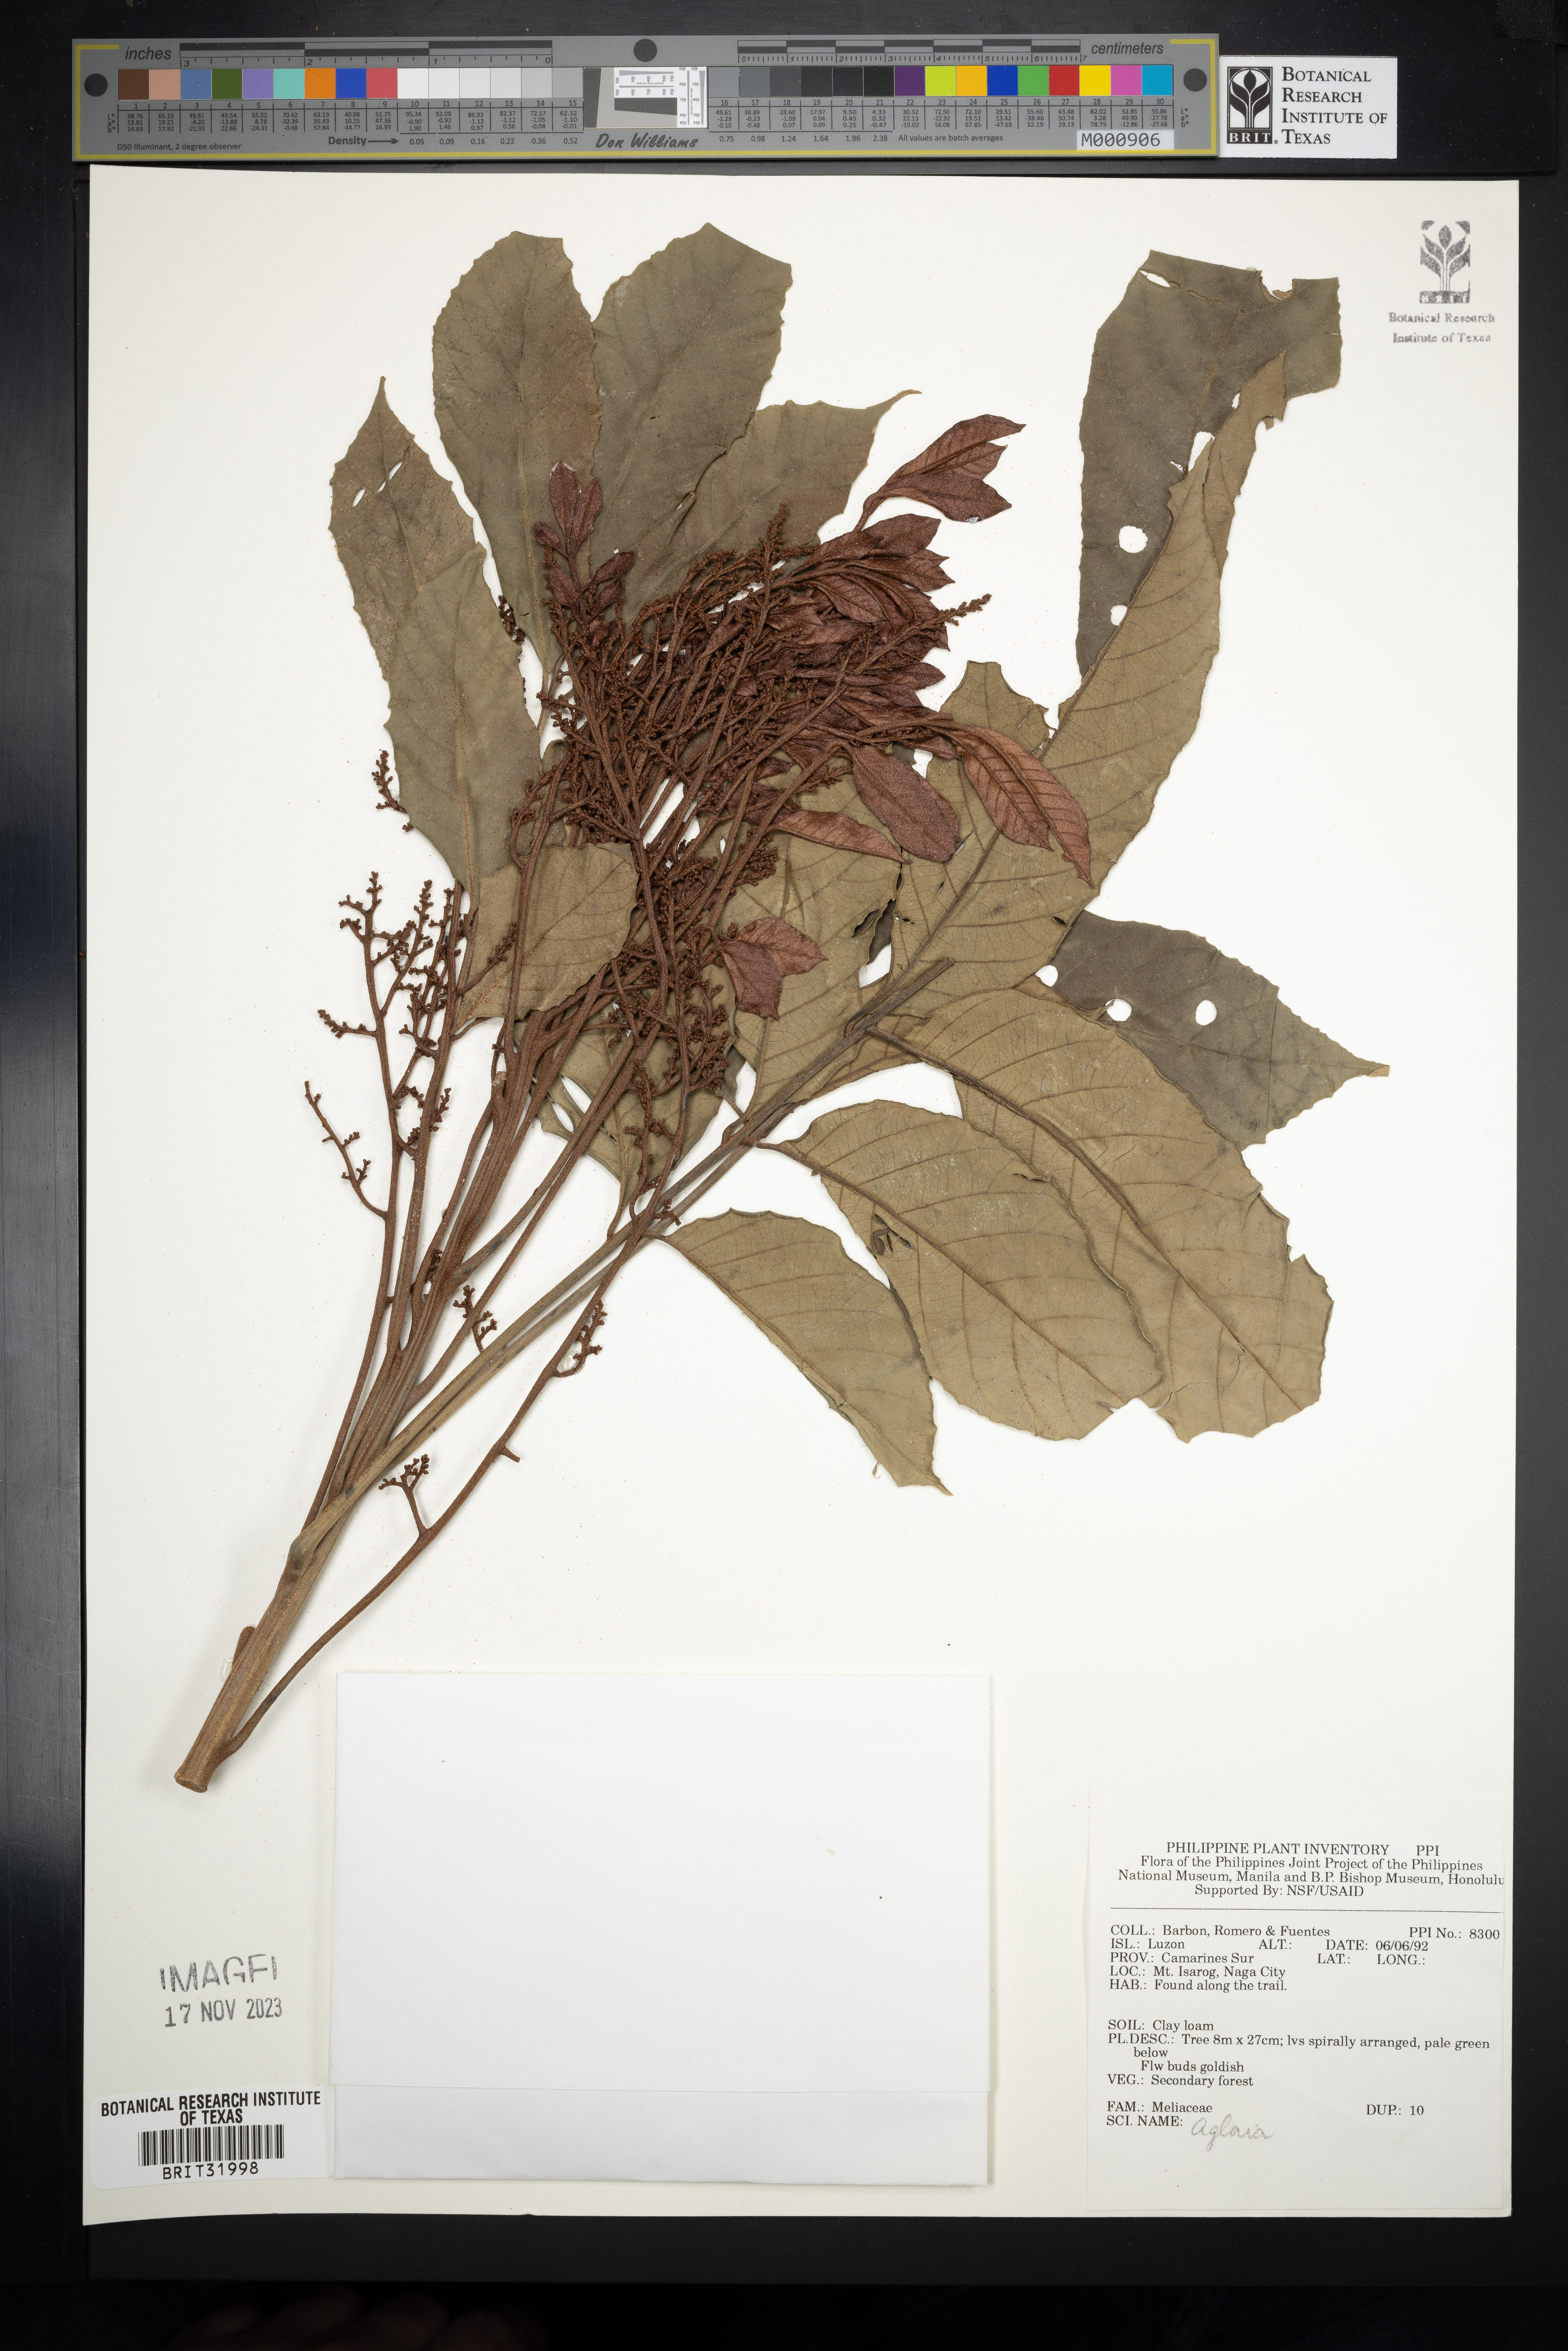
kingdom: Plantae
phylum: Tracheophyta
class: Magnoliopsida
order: Sapindales
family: Meliaceae
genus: Aglaia
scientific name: Aglaia
